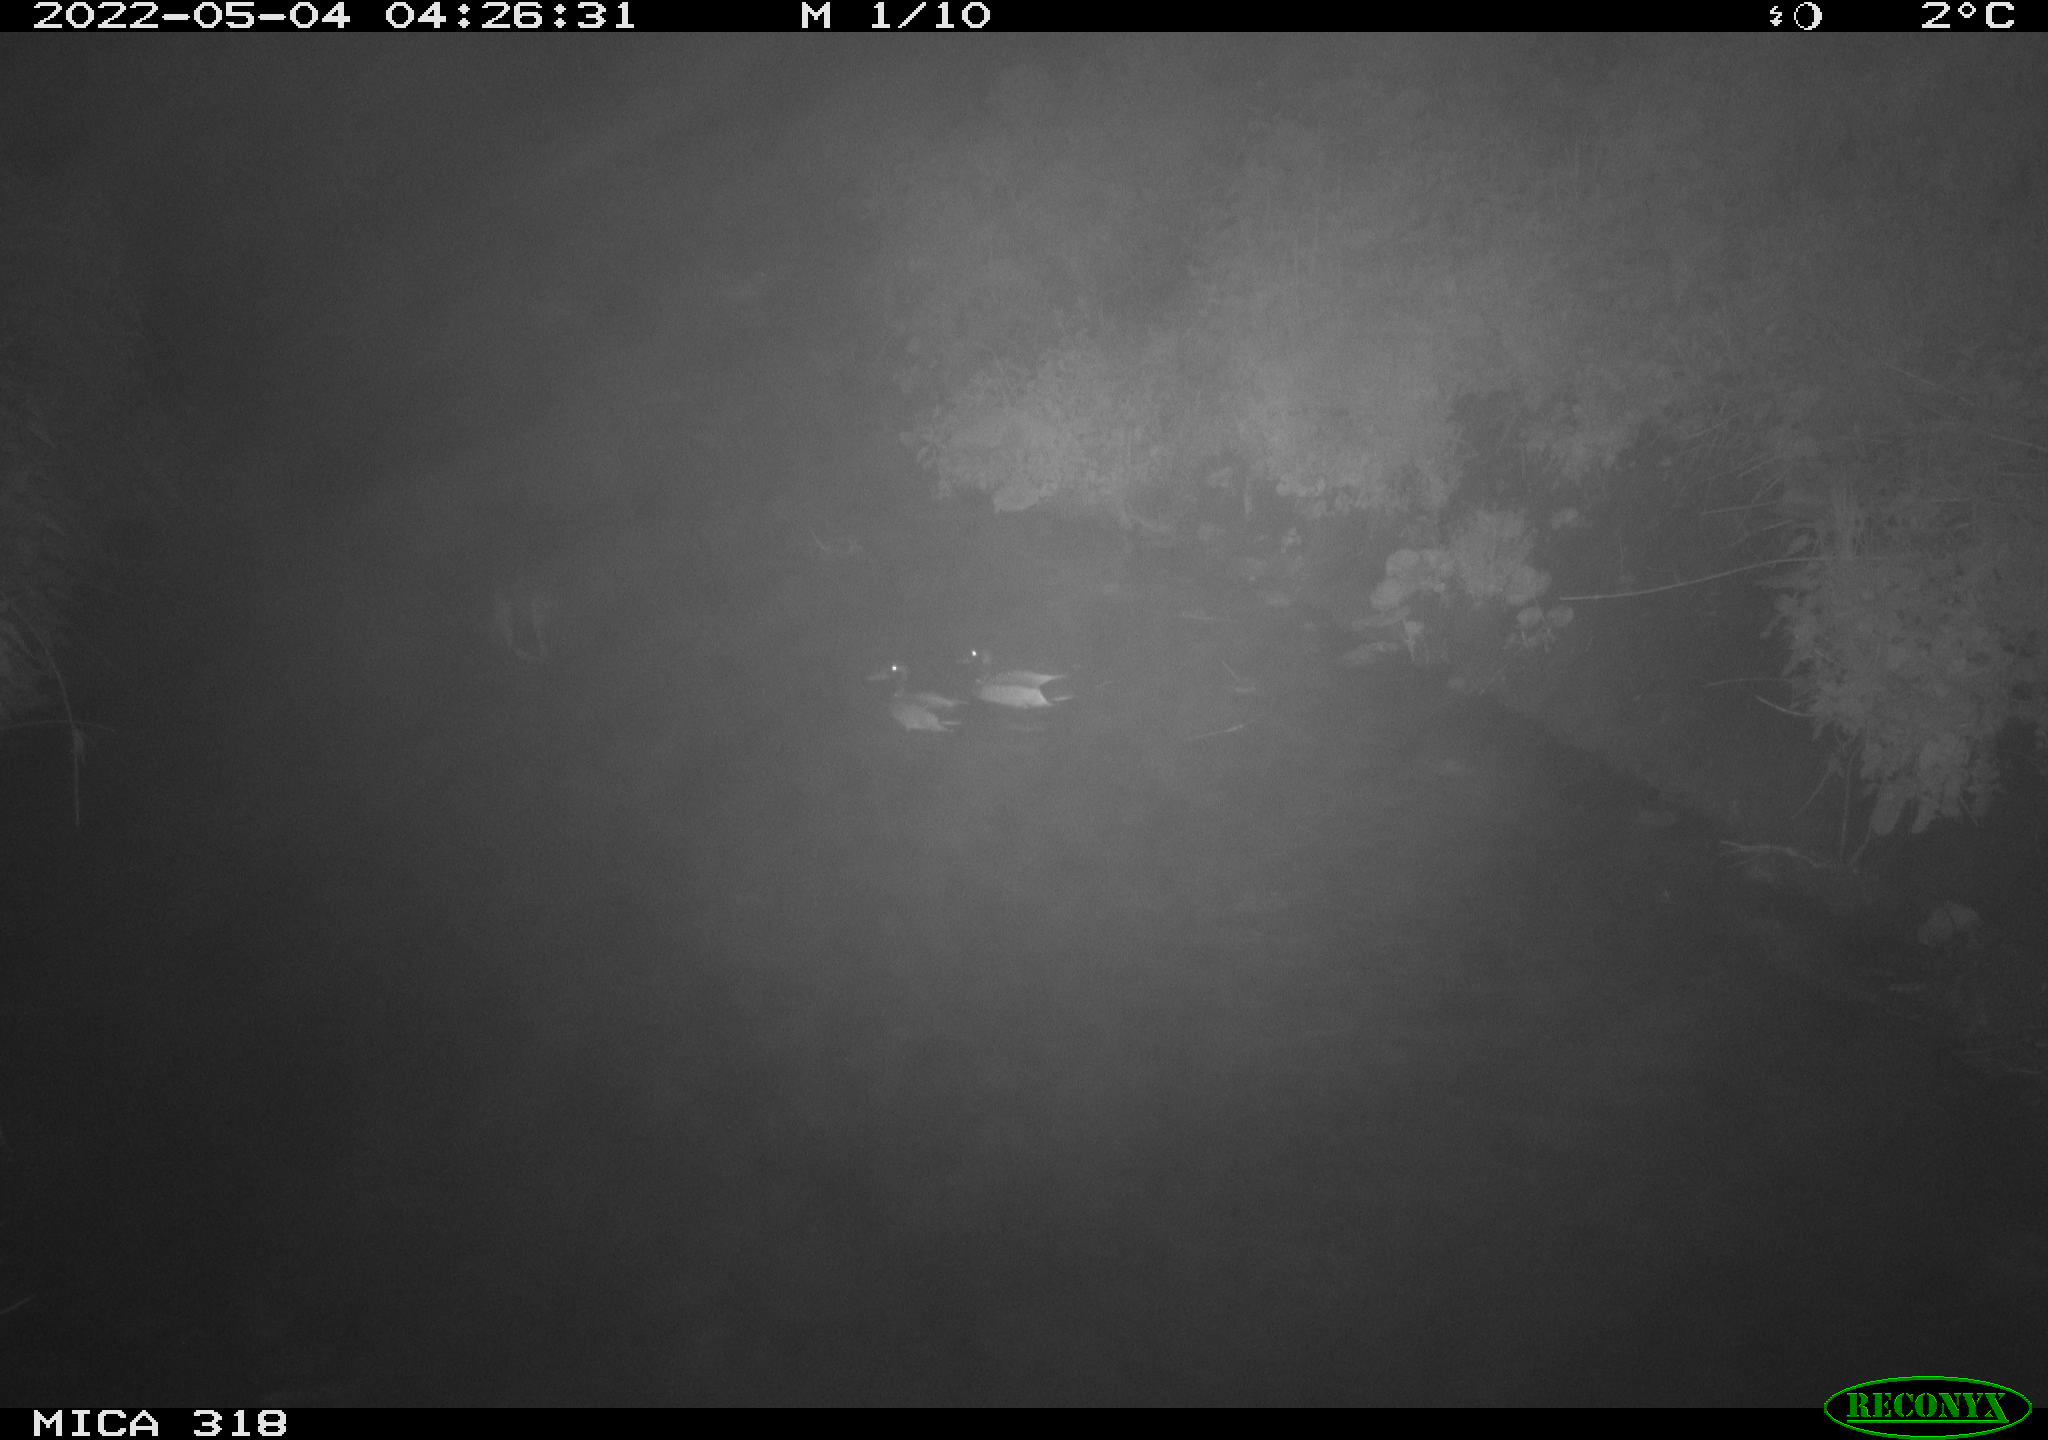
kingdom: Animalia
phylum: Chordata
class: Aves
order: Anseriformes
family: Anatidae
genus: Anas
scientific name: Anas platyrhynchos
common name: Mallard
